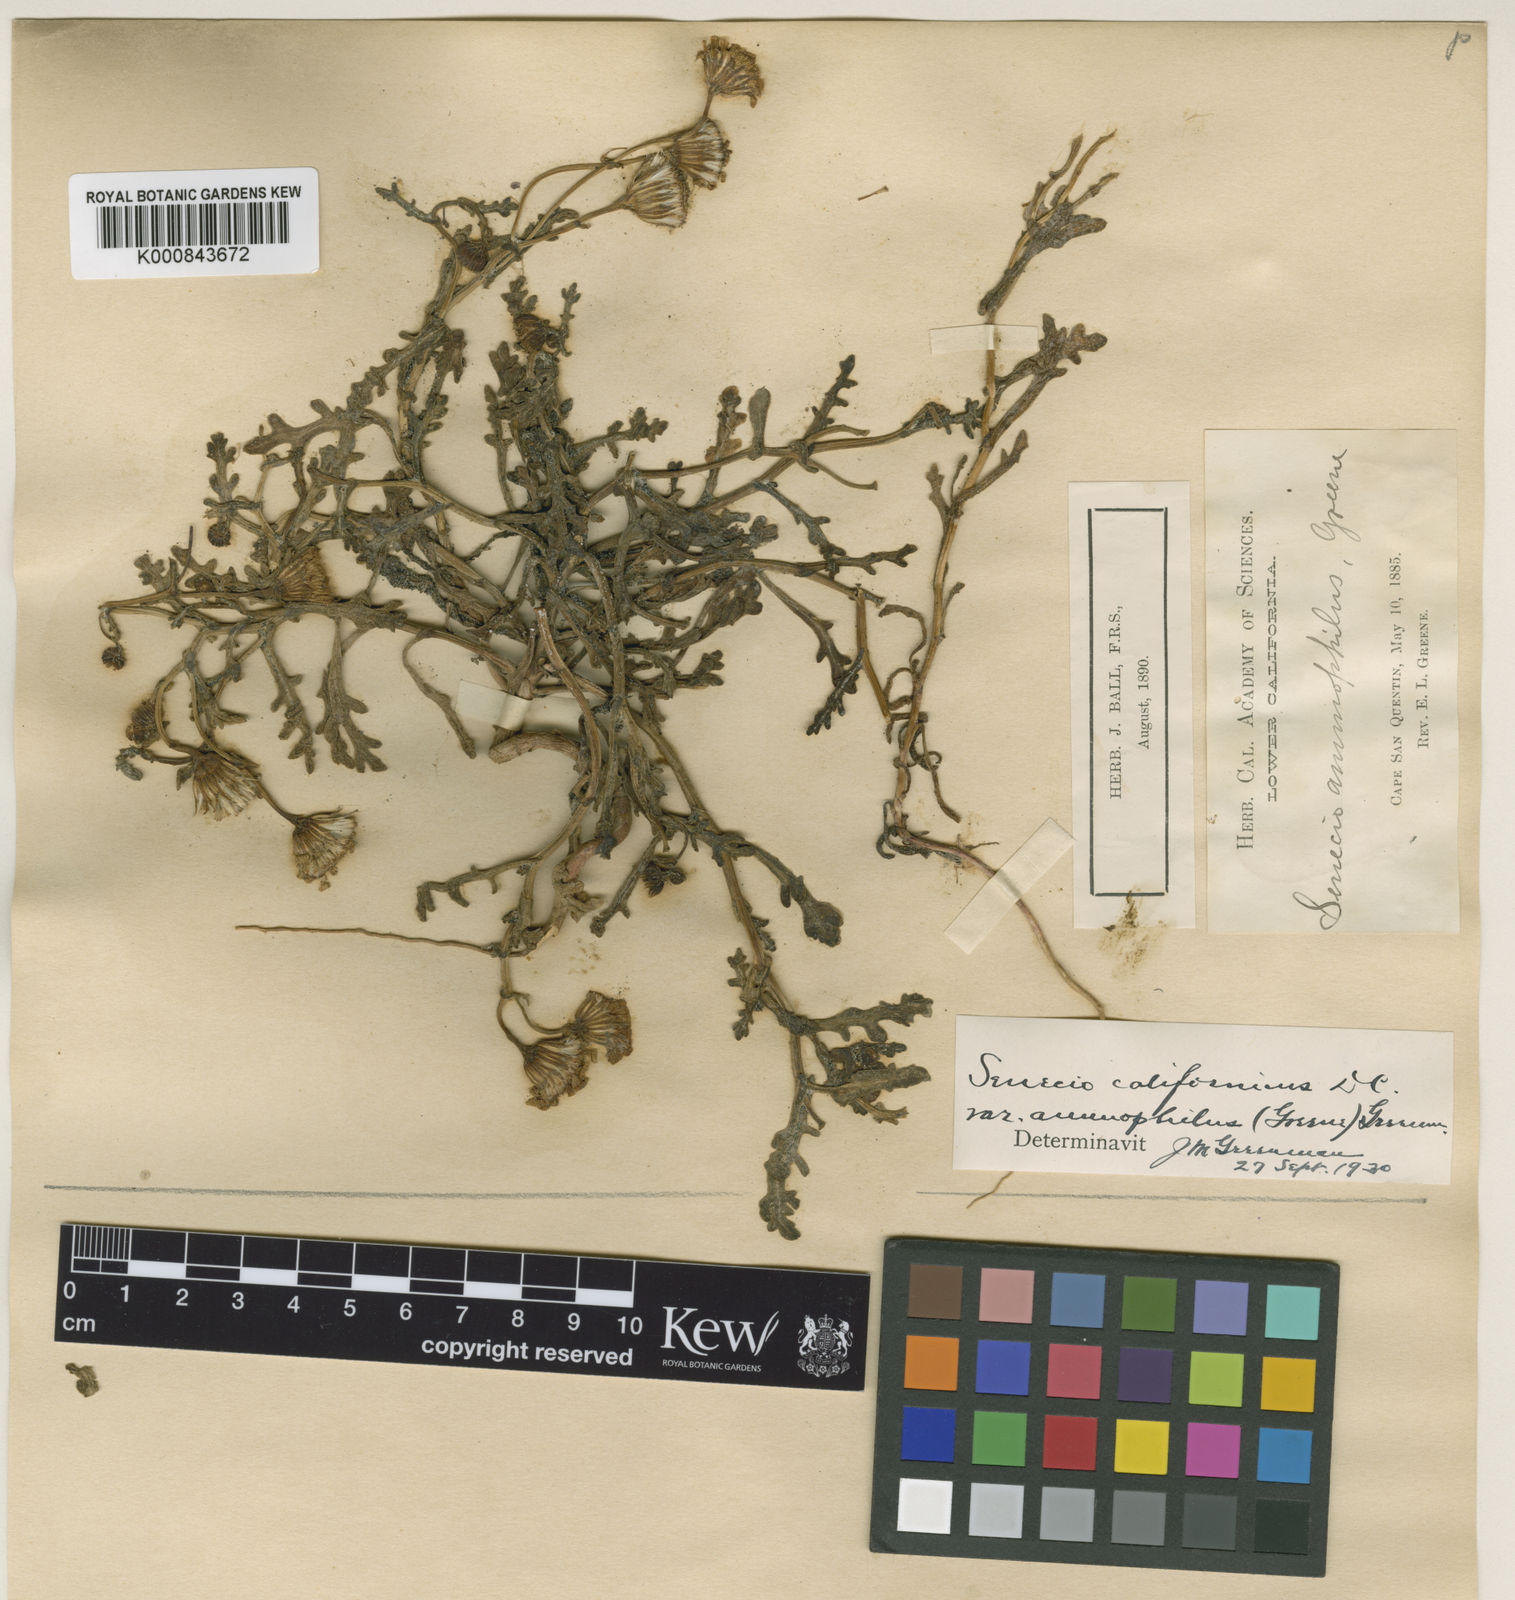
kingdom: Plantae
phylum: Tracheophyta
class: Magnoliopsida
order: Asterales
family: Asteraceae
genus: Senecio
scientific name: Senecio californicus
